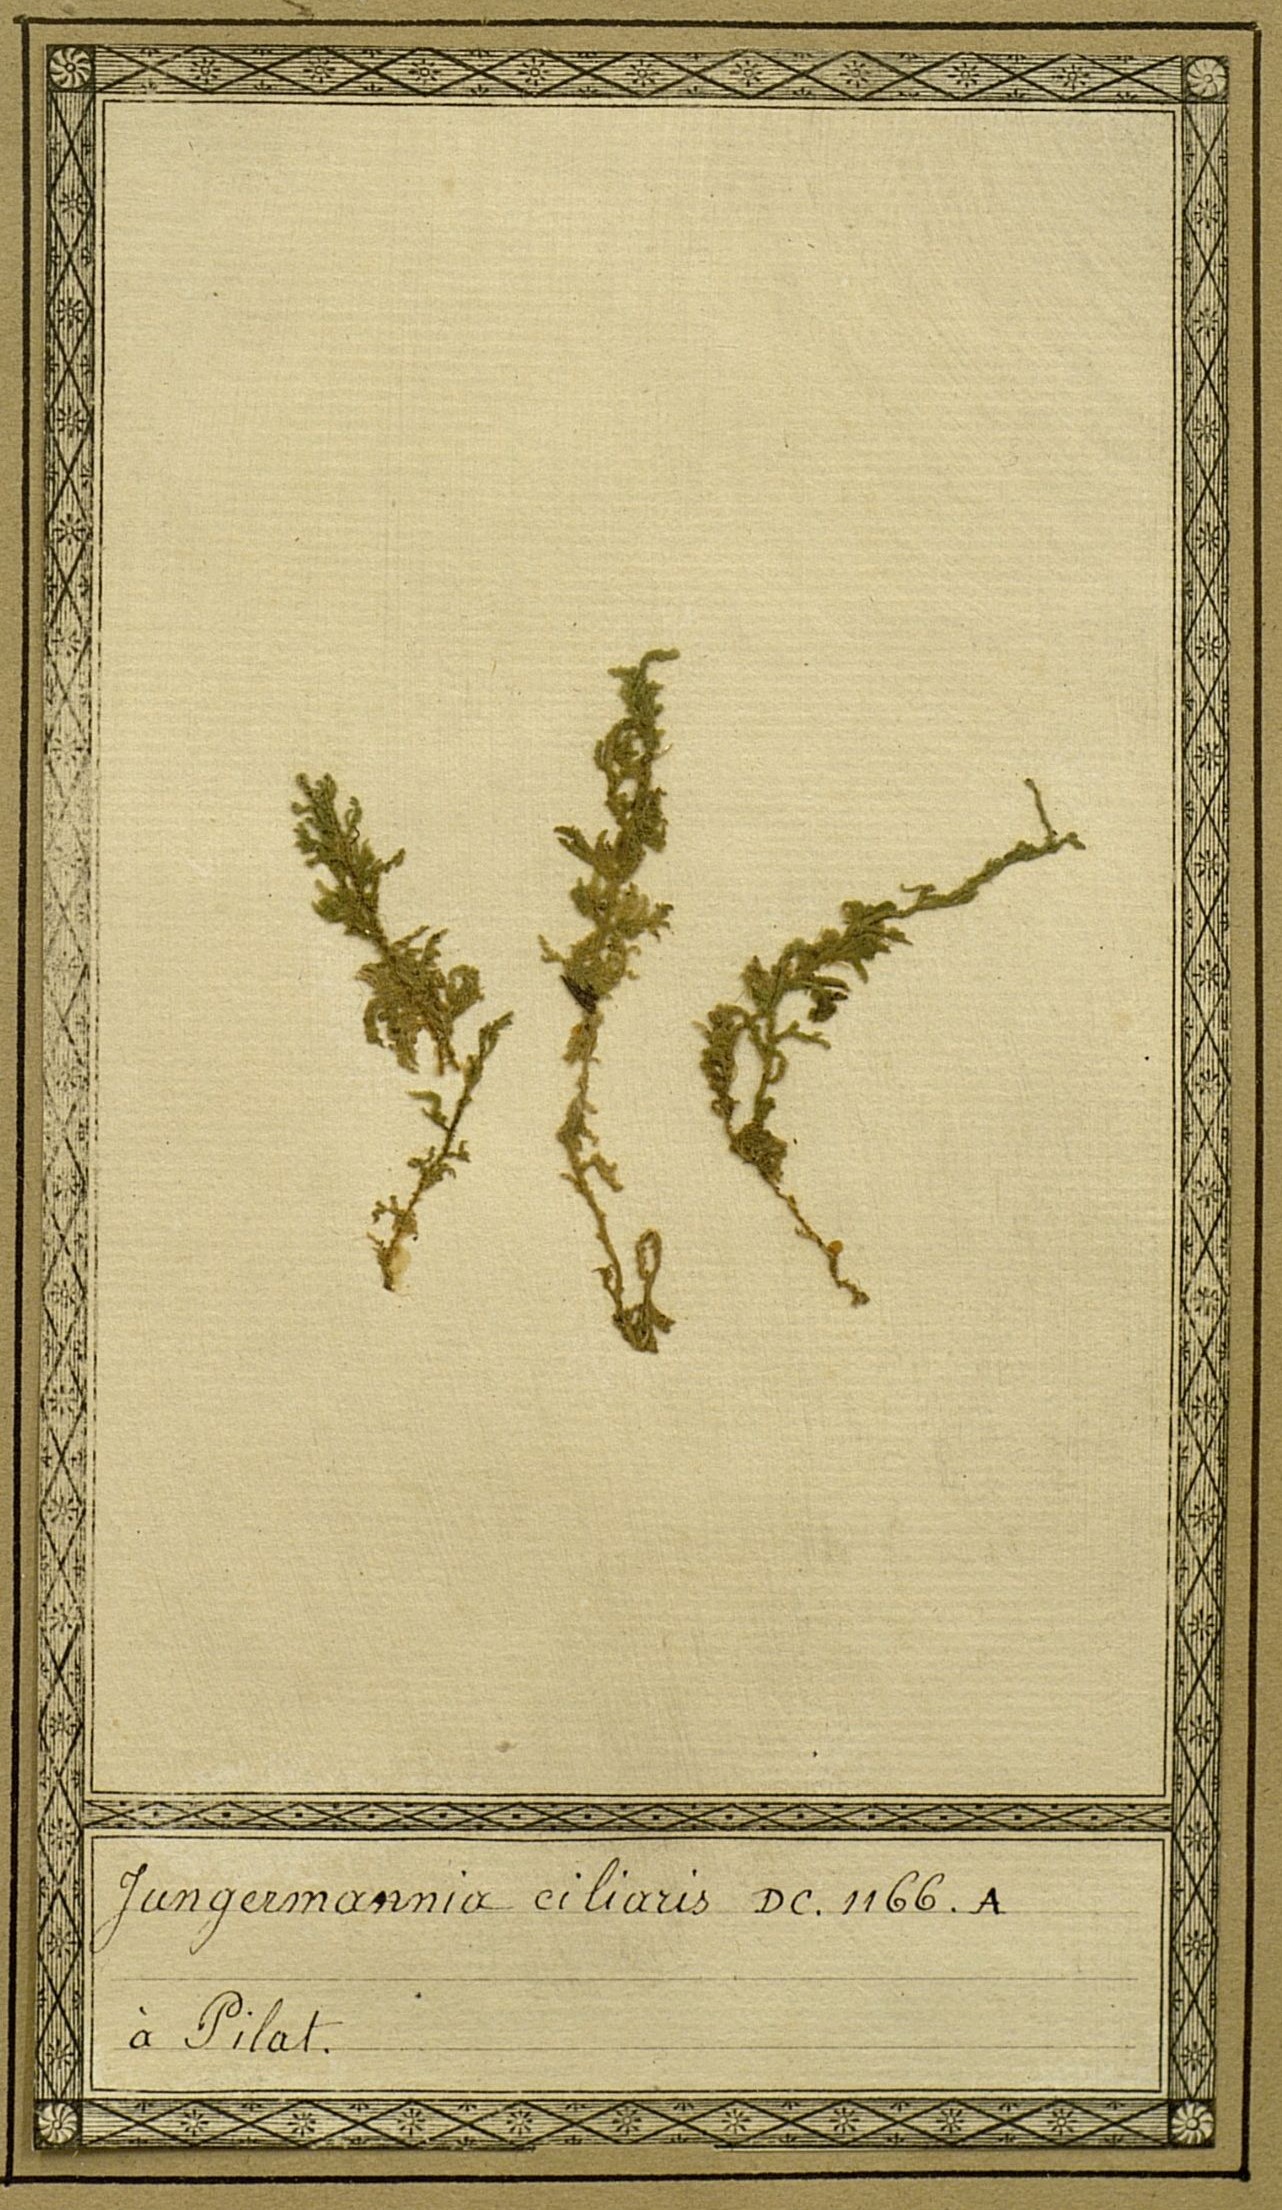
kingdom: Plantae
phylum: Marchantiophyta
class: Jungermanniopsida
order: Ptilidiales
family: Ptilidiaceae
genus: Ptilidium
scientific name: Ptilidium ciliare
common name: Ciliate fringewort
